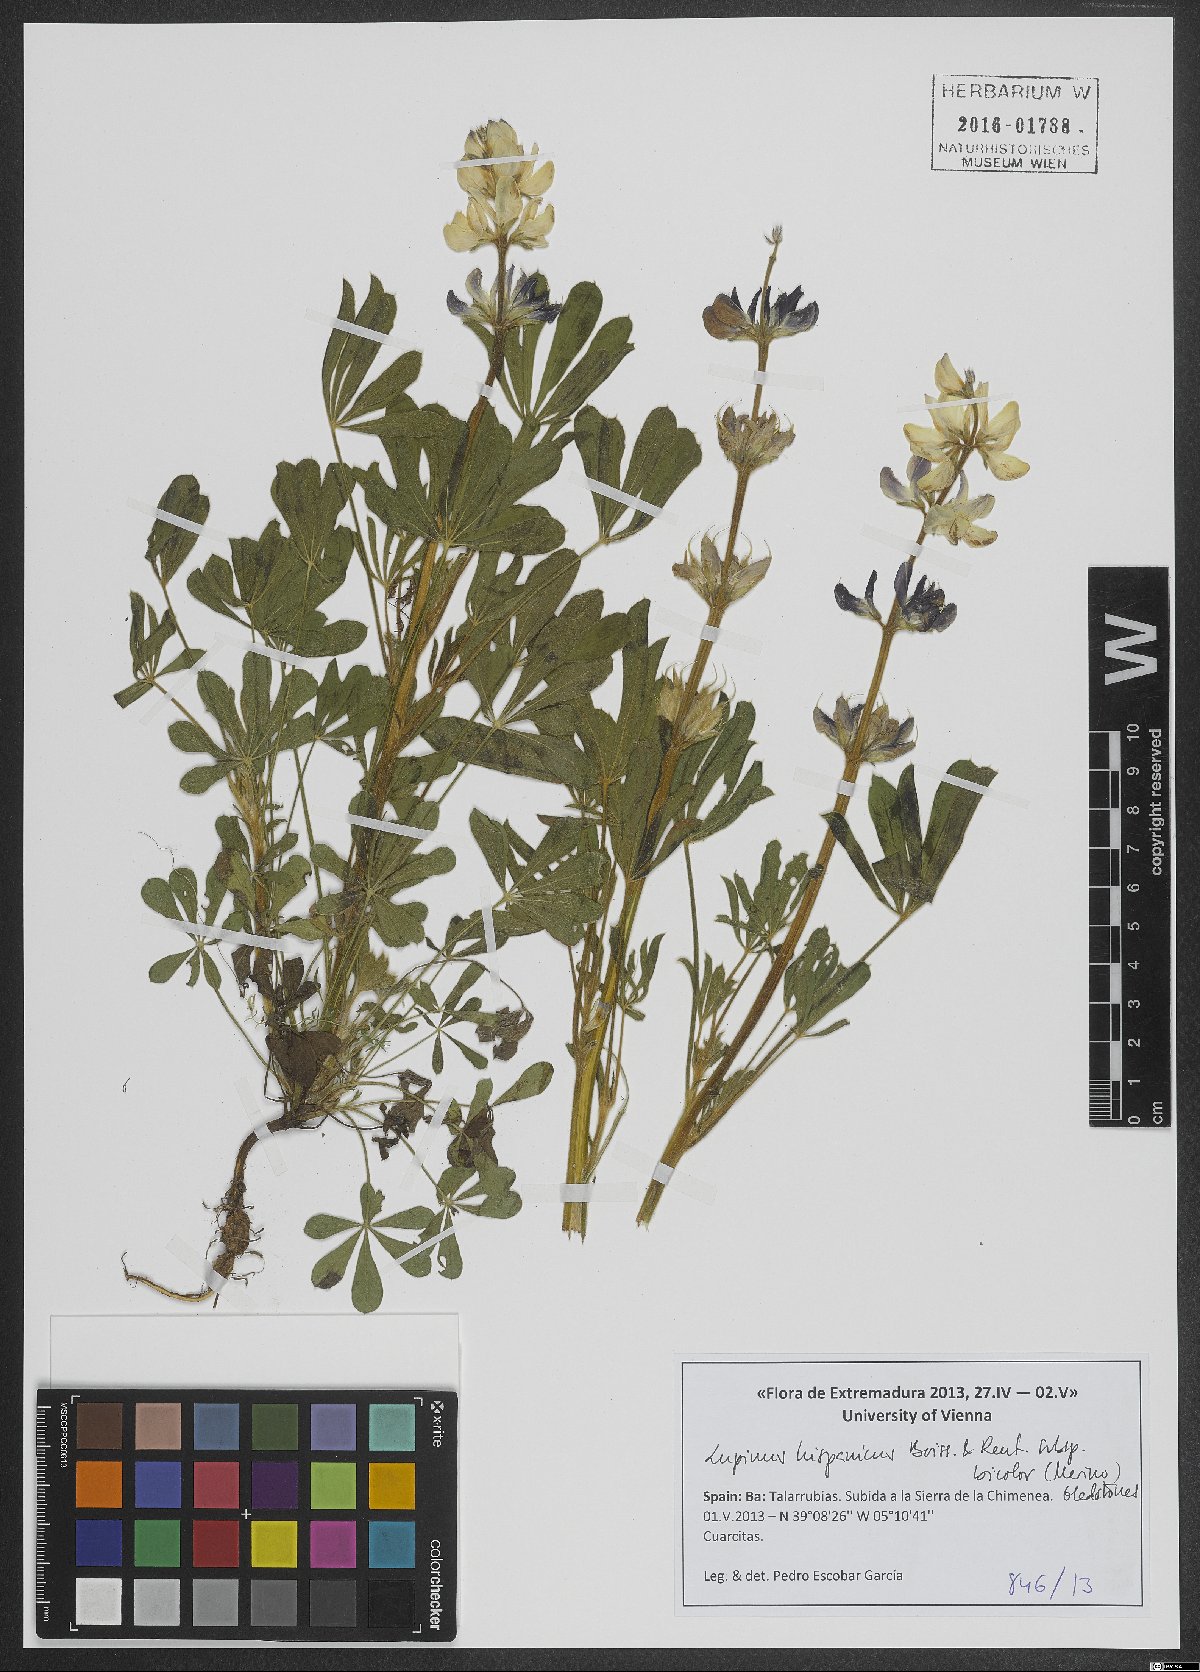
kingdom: Plantae
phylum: Tracheophyta
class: Magnoliopsida
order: Fabales
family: Fabaceae
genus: Lupinus
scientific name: Lupinus hispanicus
